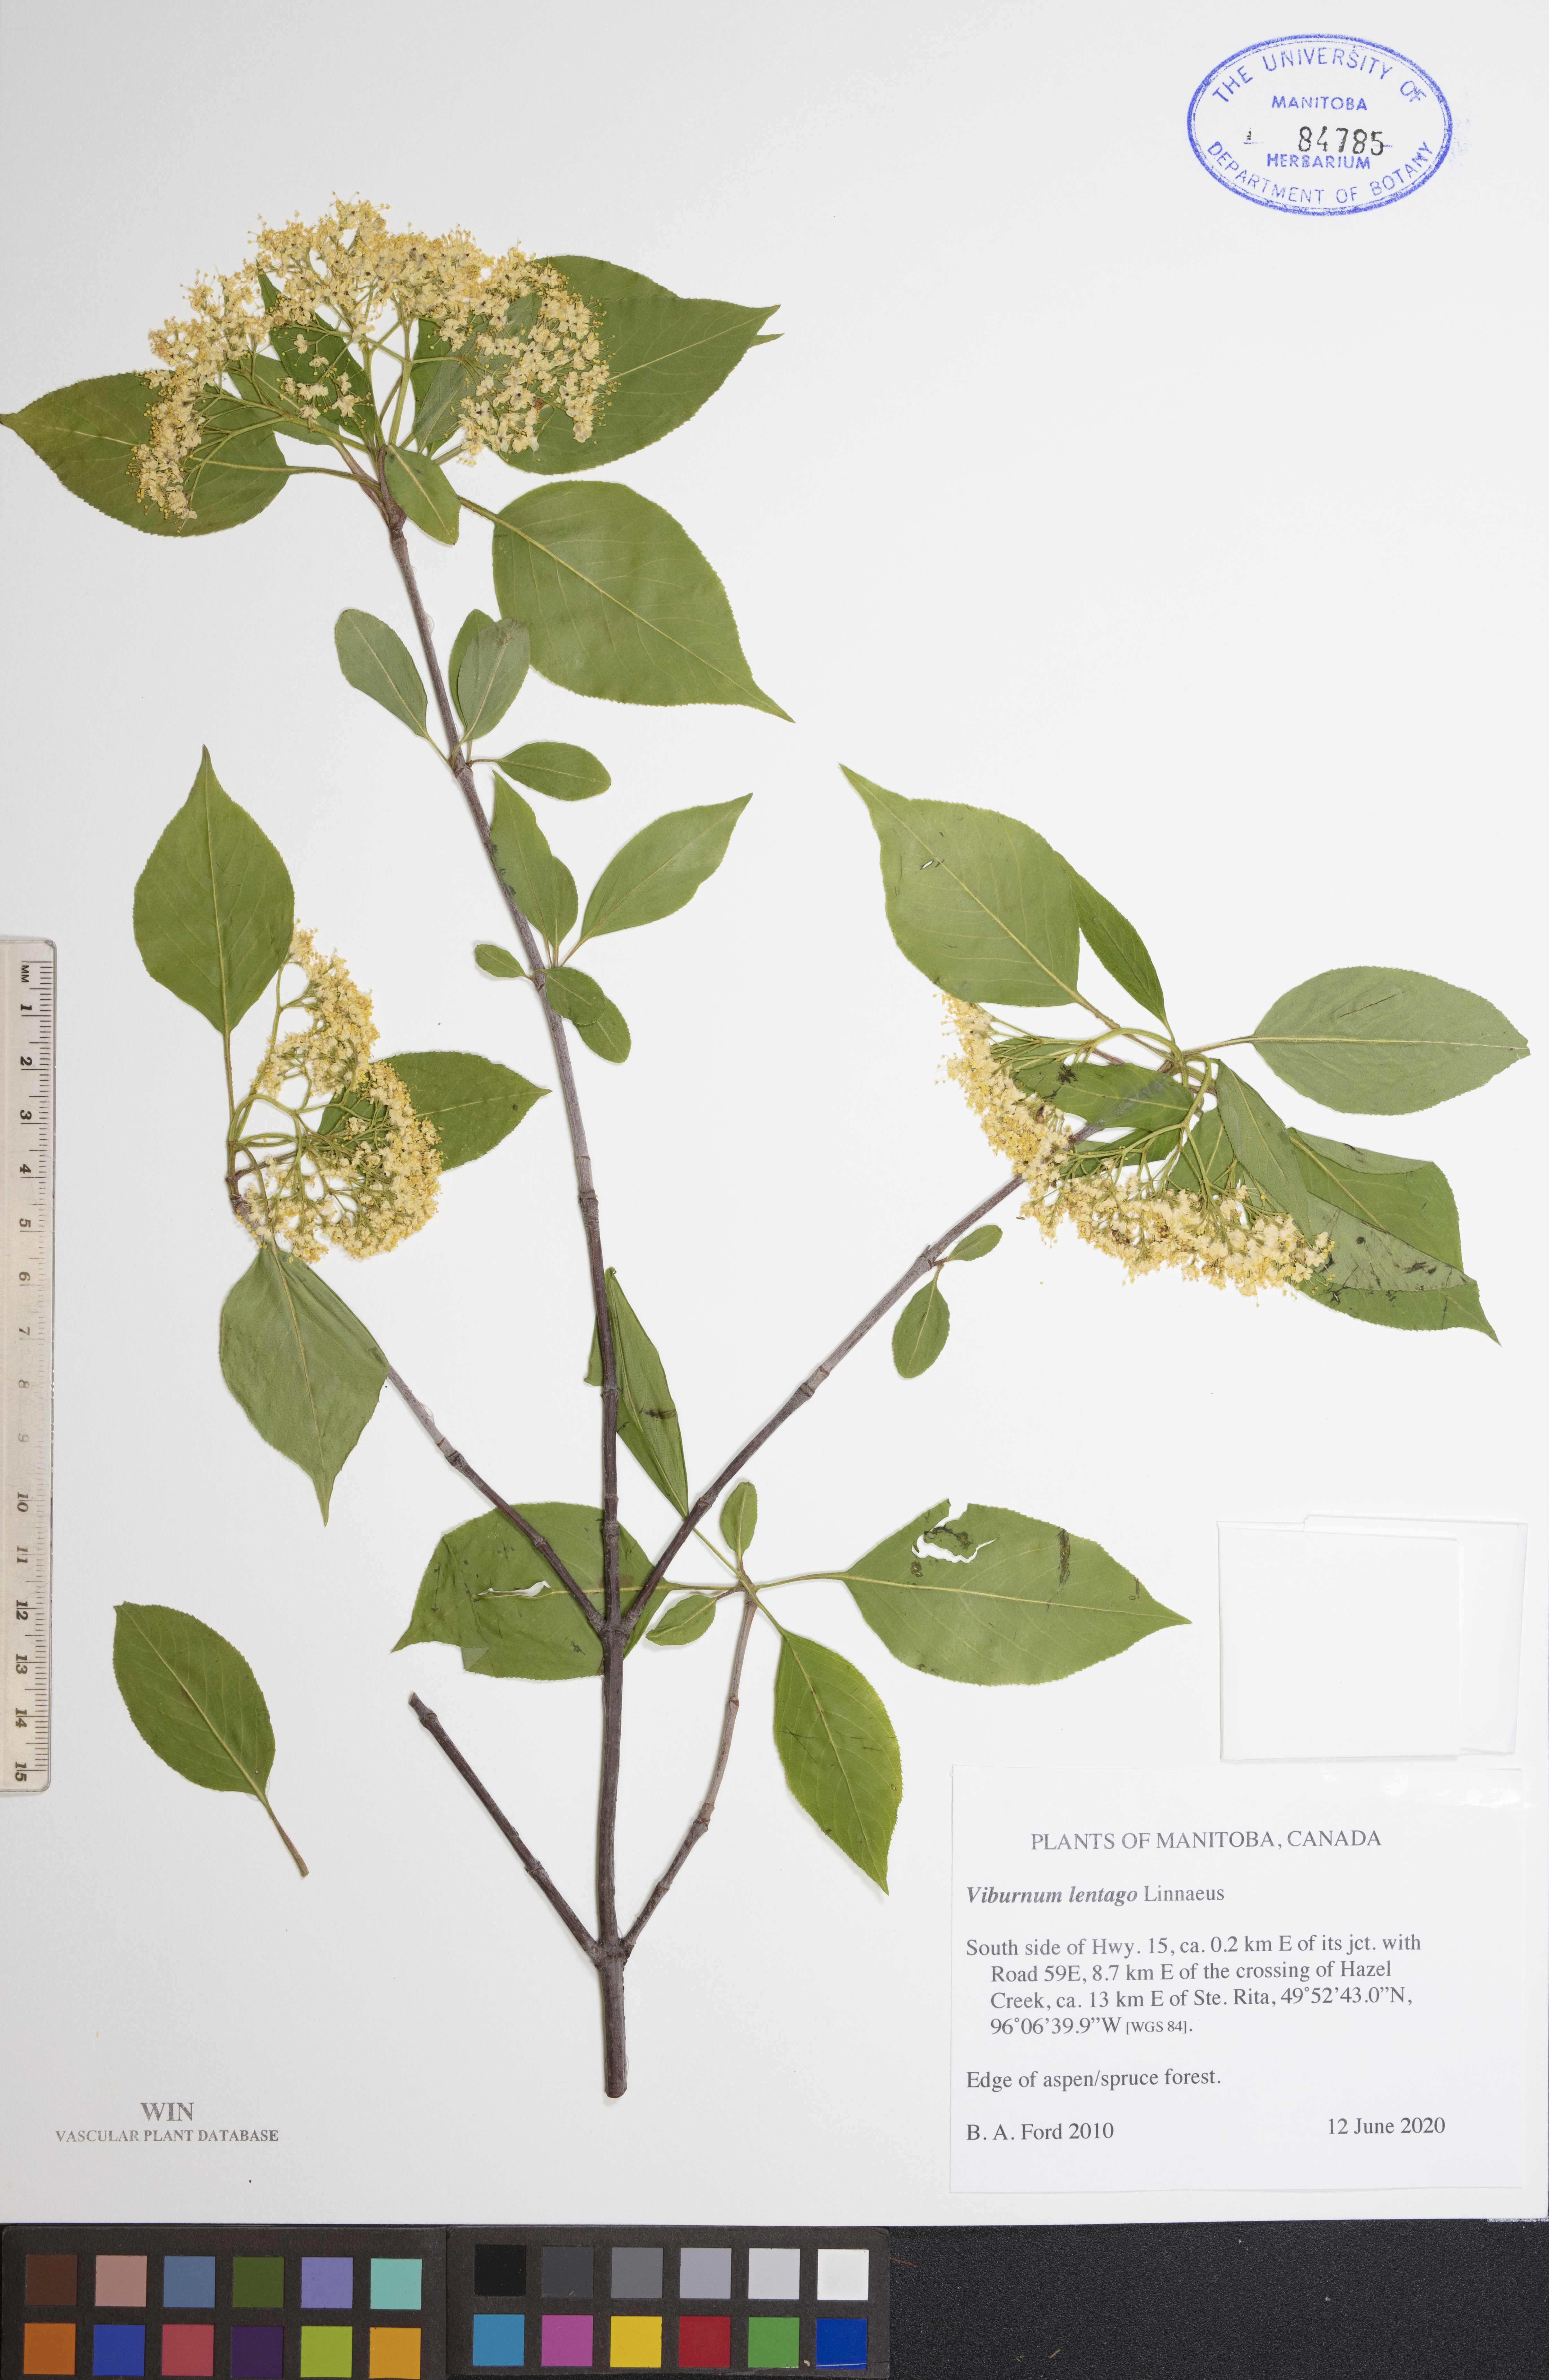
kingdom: Plantae
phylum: Tracheophyta
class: Magnoliopsida
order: Dipsacales
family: Viburnaceae
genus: Viburnum
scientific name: Viburnum lentago
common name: Black haw
